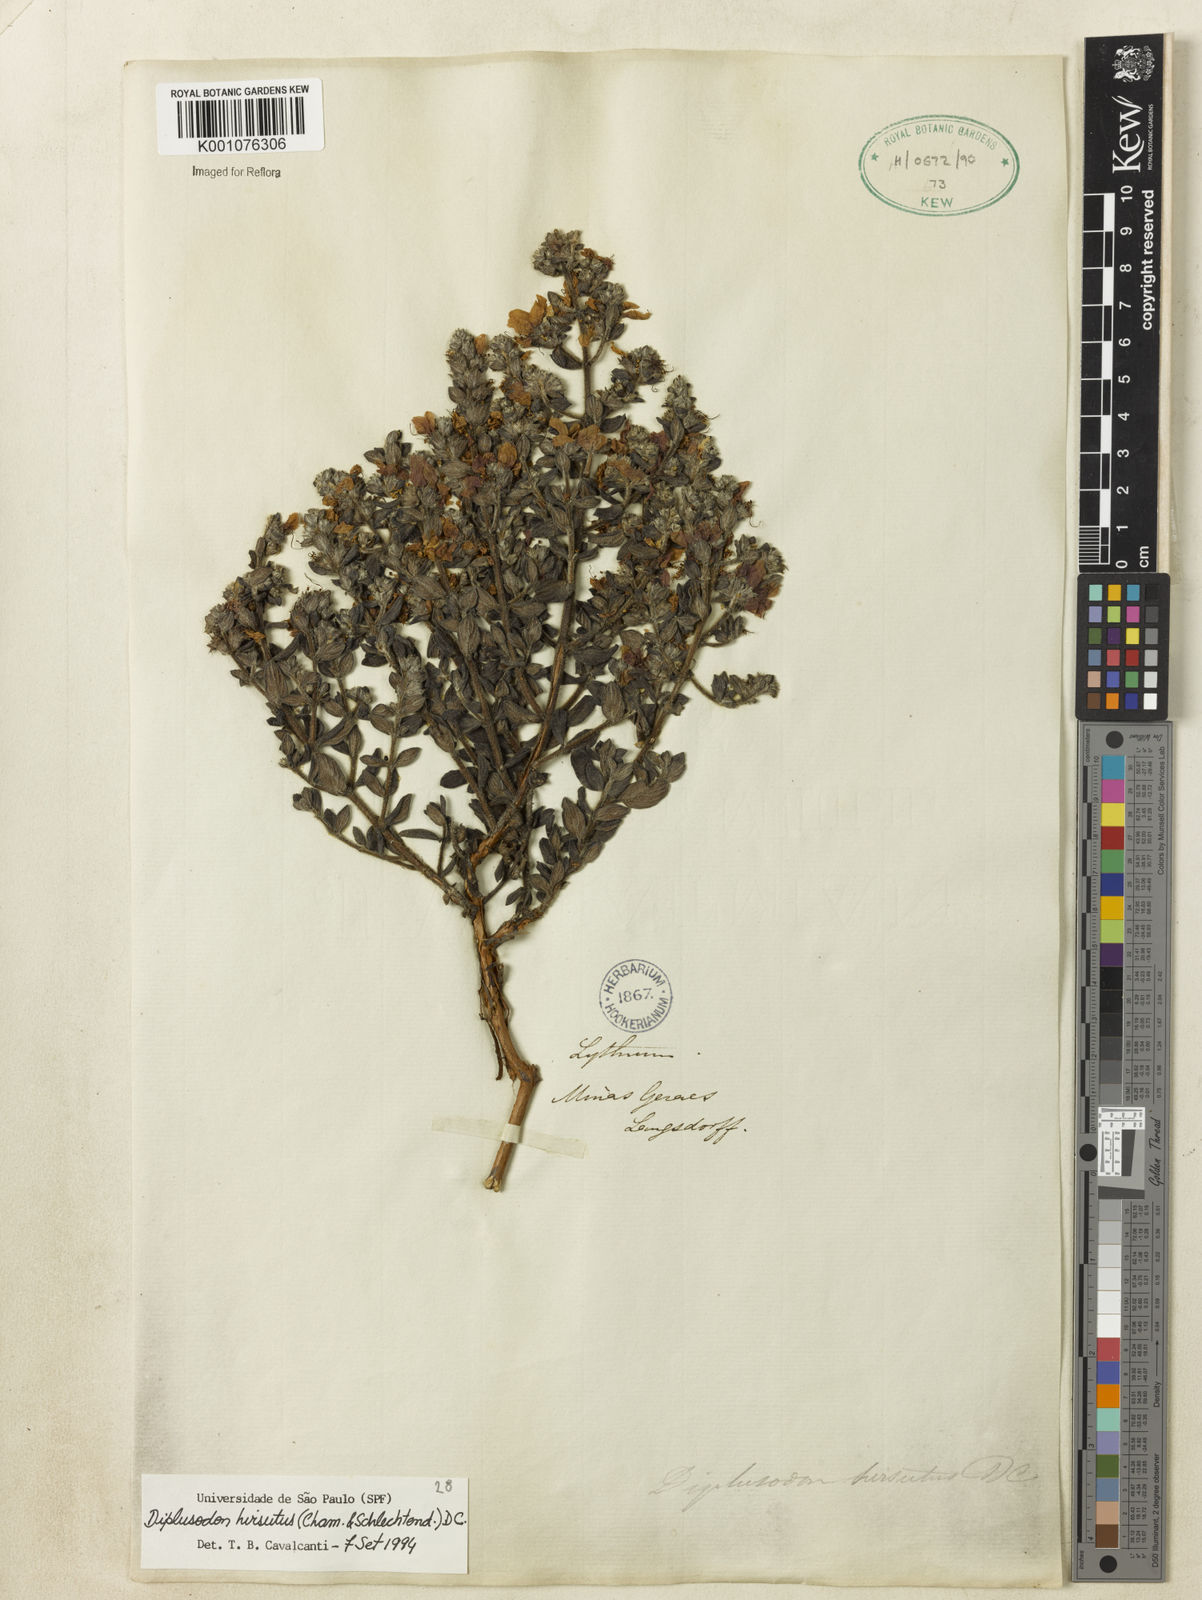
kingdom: Plantae
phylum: Tracheophyta
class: Magnoliopsida
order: Myrtales
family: Lythraceae
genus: Diplusodon
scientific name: Diplusodon hirsutus
